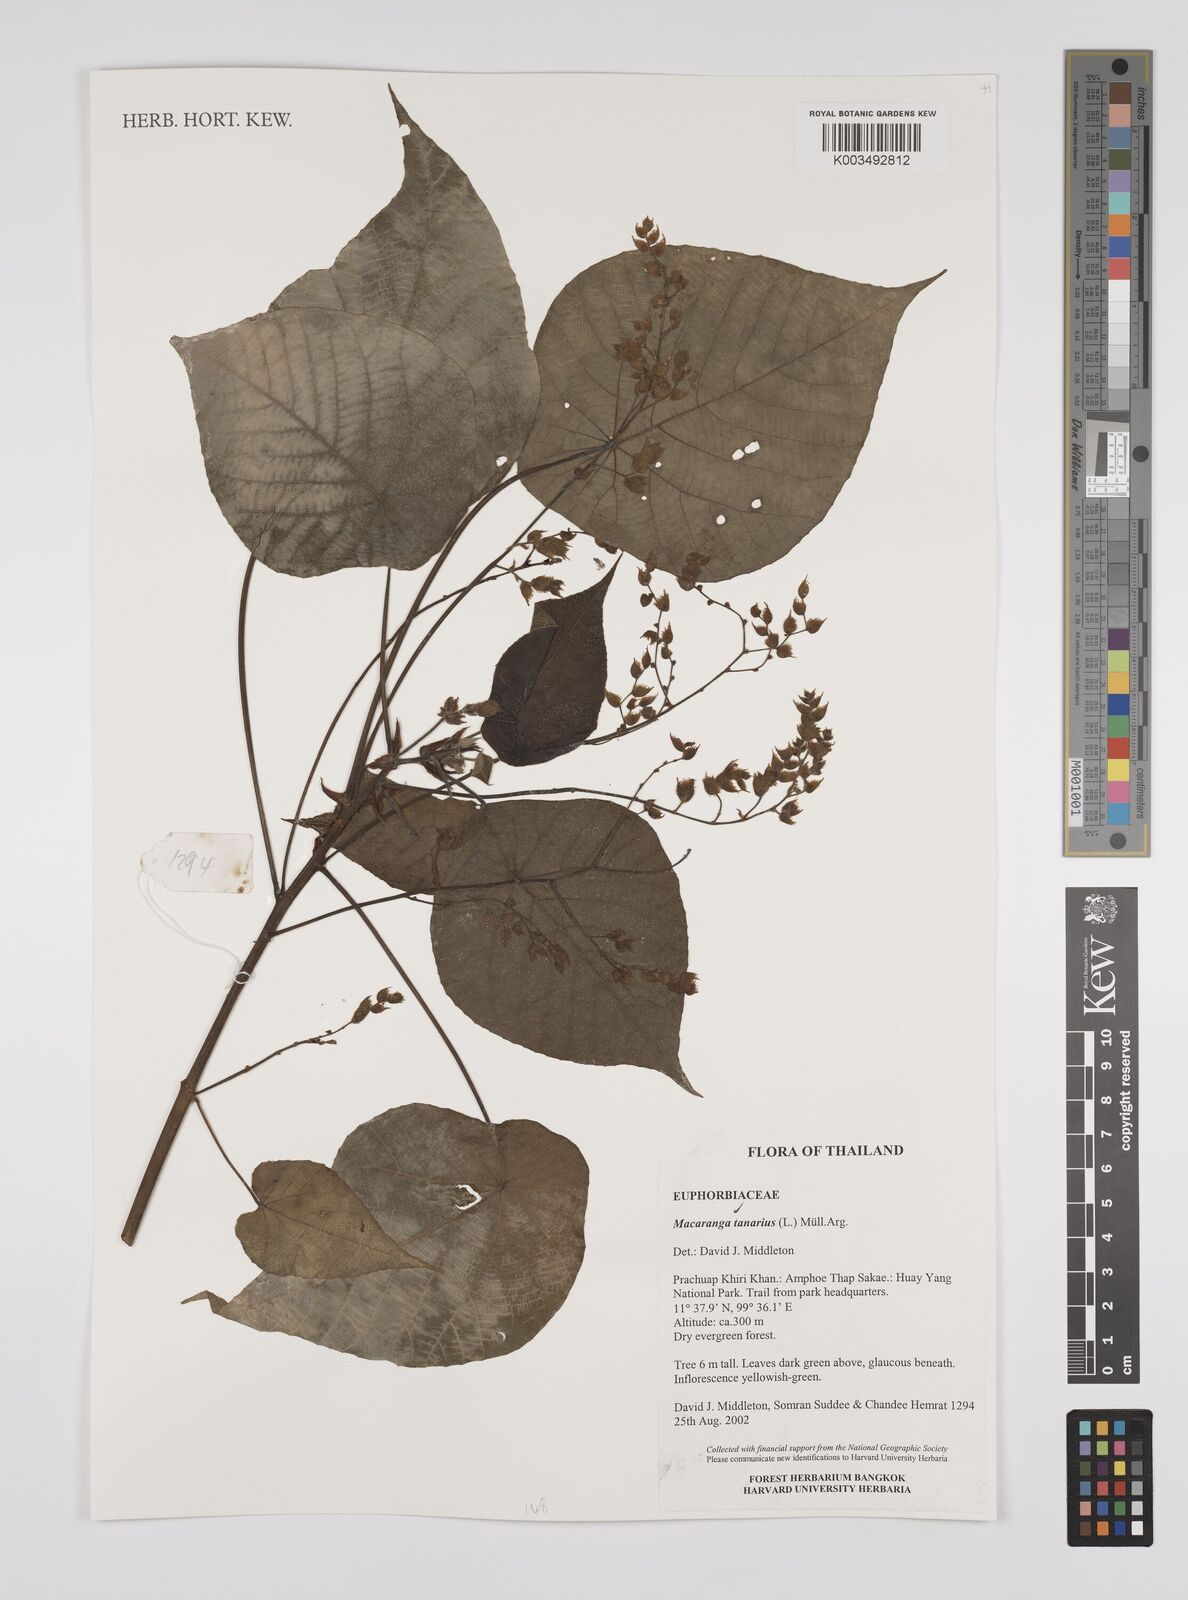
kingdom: Plantae
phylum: Tracheophyta
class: Magnoliopsida
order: Malpighiales
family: Euphorbiaceae
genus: Macaranga
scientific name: Macaranga tanarius
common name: Parasol leaf tree
